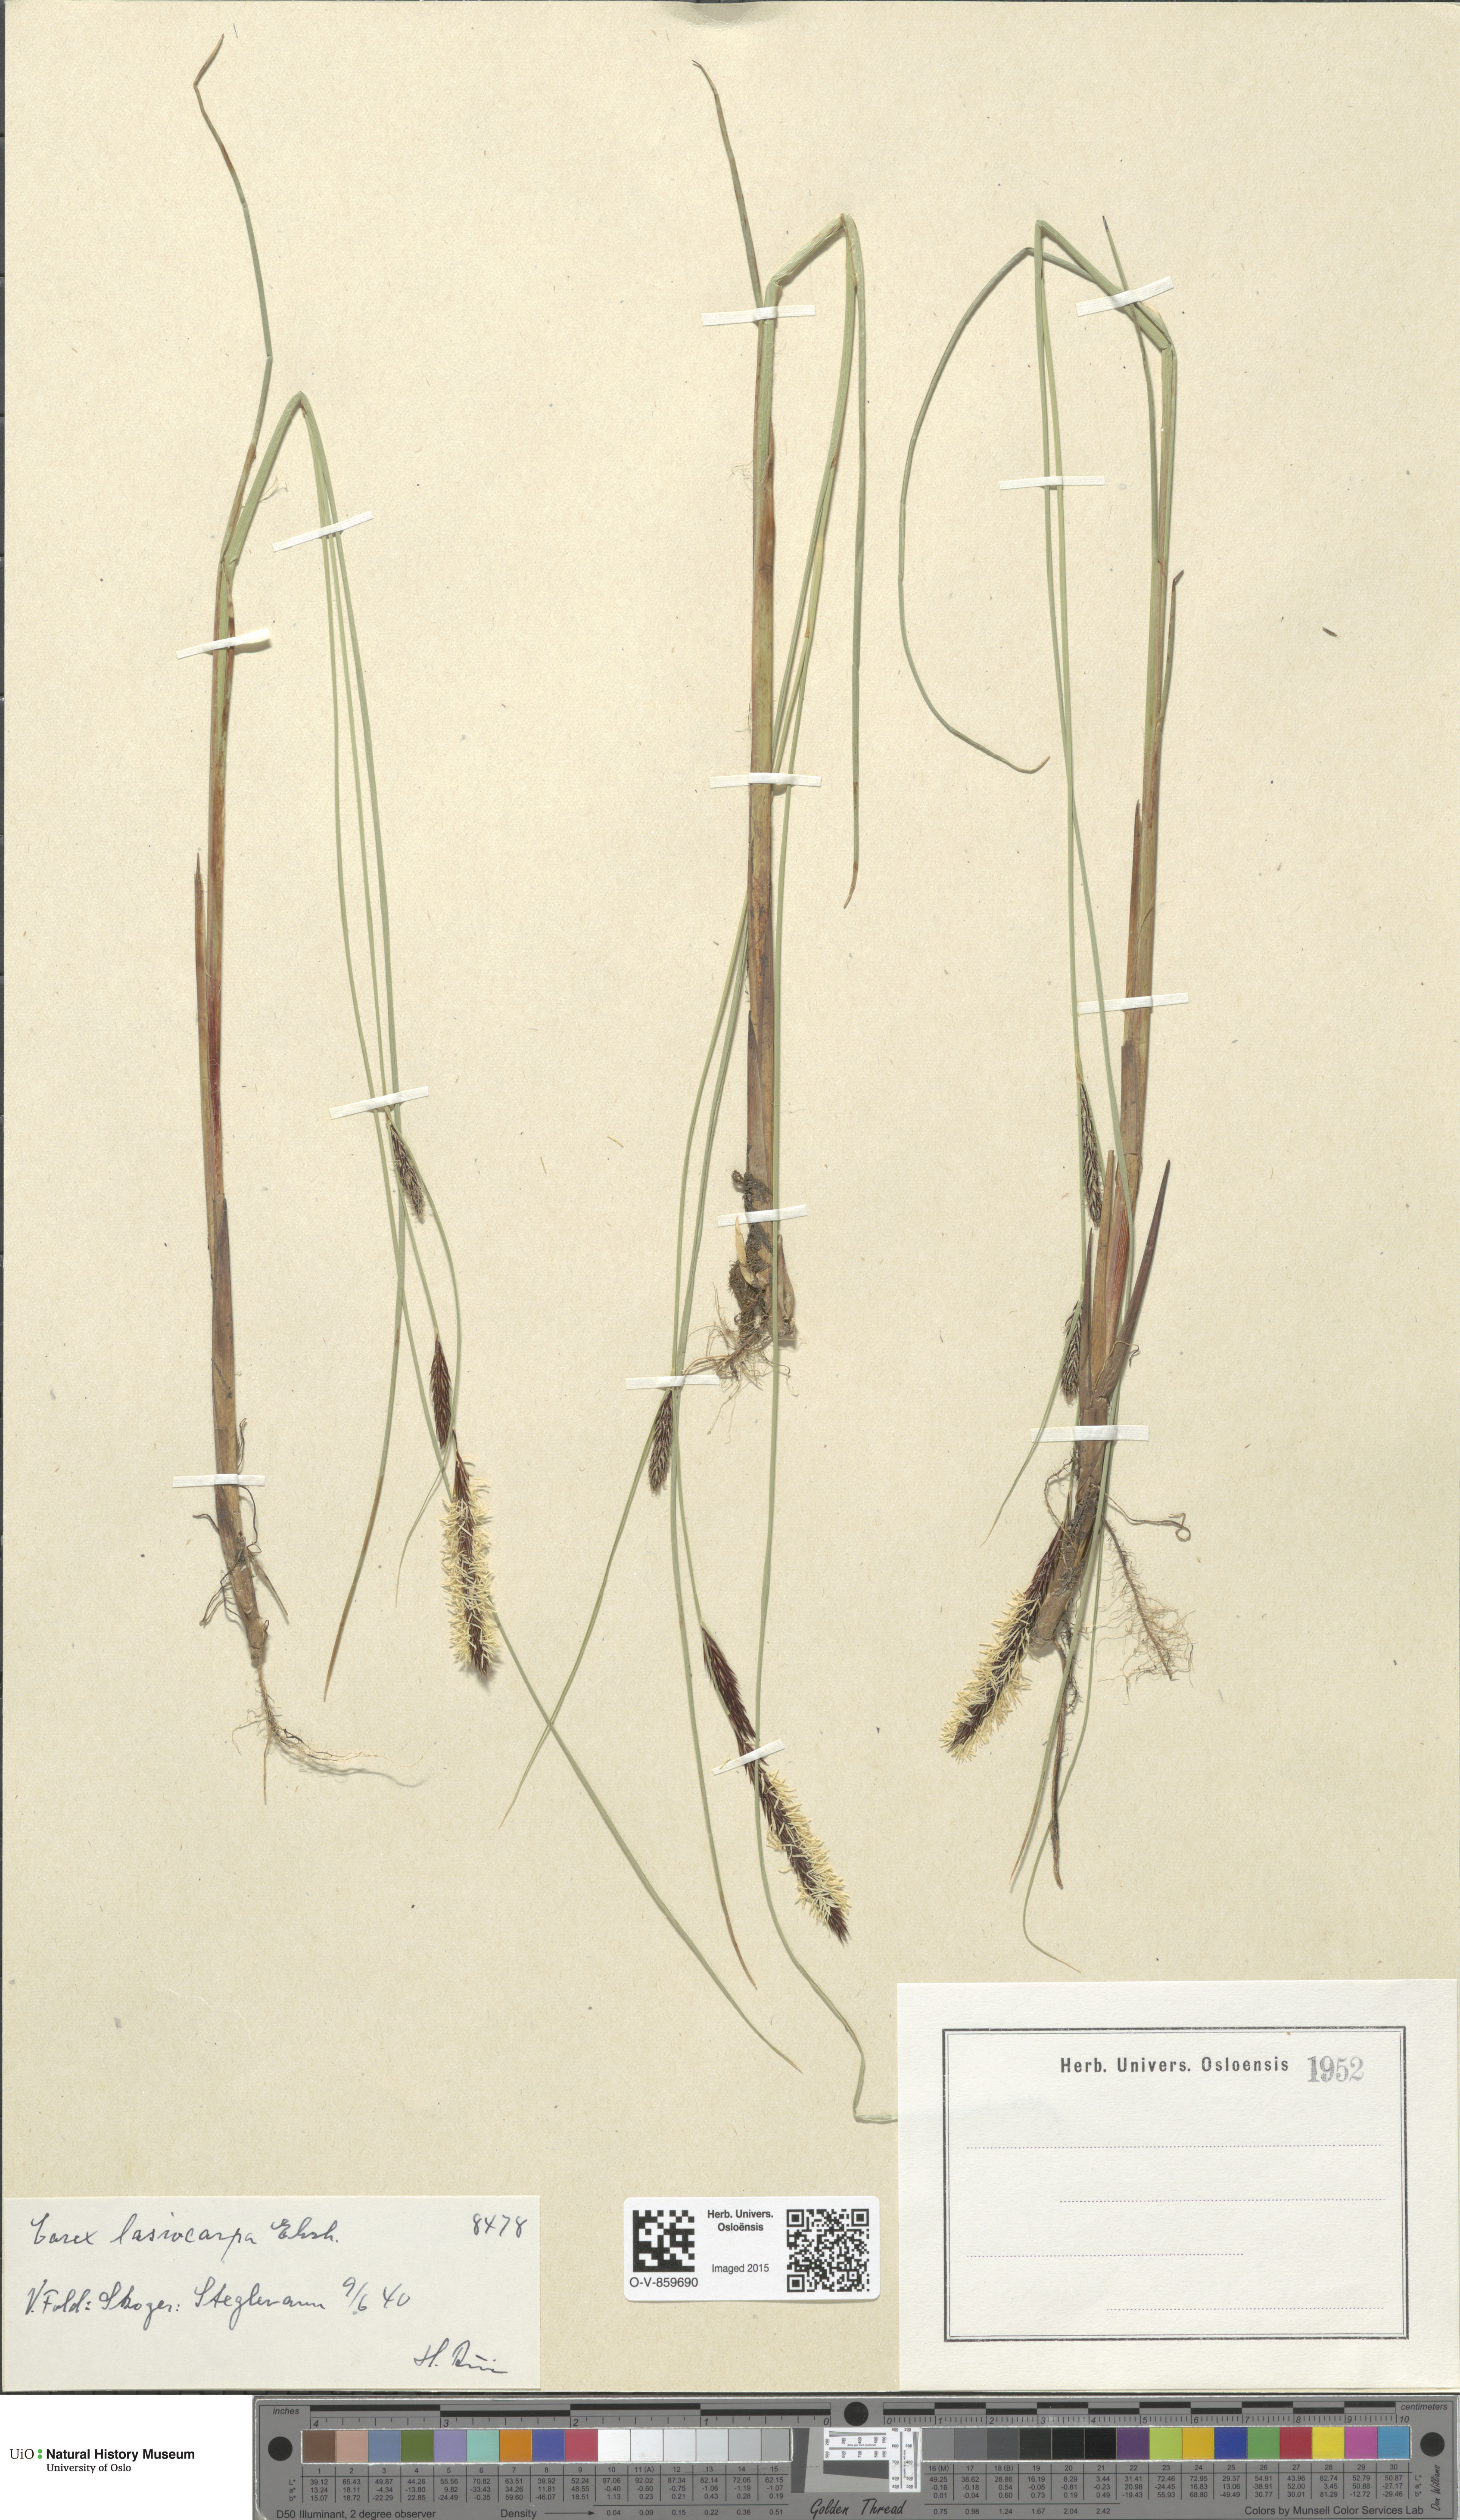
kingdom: Plantae
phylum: Tracheophyta
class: Liliopsida
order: Poales
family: Cyperaceae
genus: Carex
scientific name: Carex lasiocarpa
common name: Slender sedge
